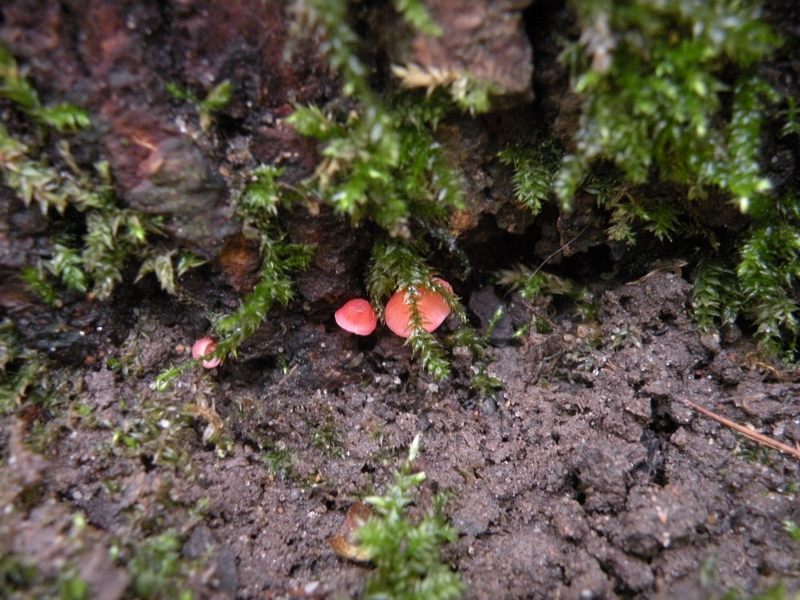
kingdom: Fungi
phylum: Basidiomycota
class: Agaricomycetes
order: Agaricales
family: Mycenaceae
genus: Mycena
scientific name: Mycena coccinea
